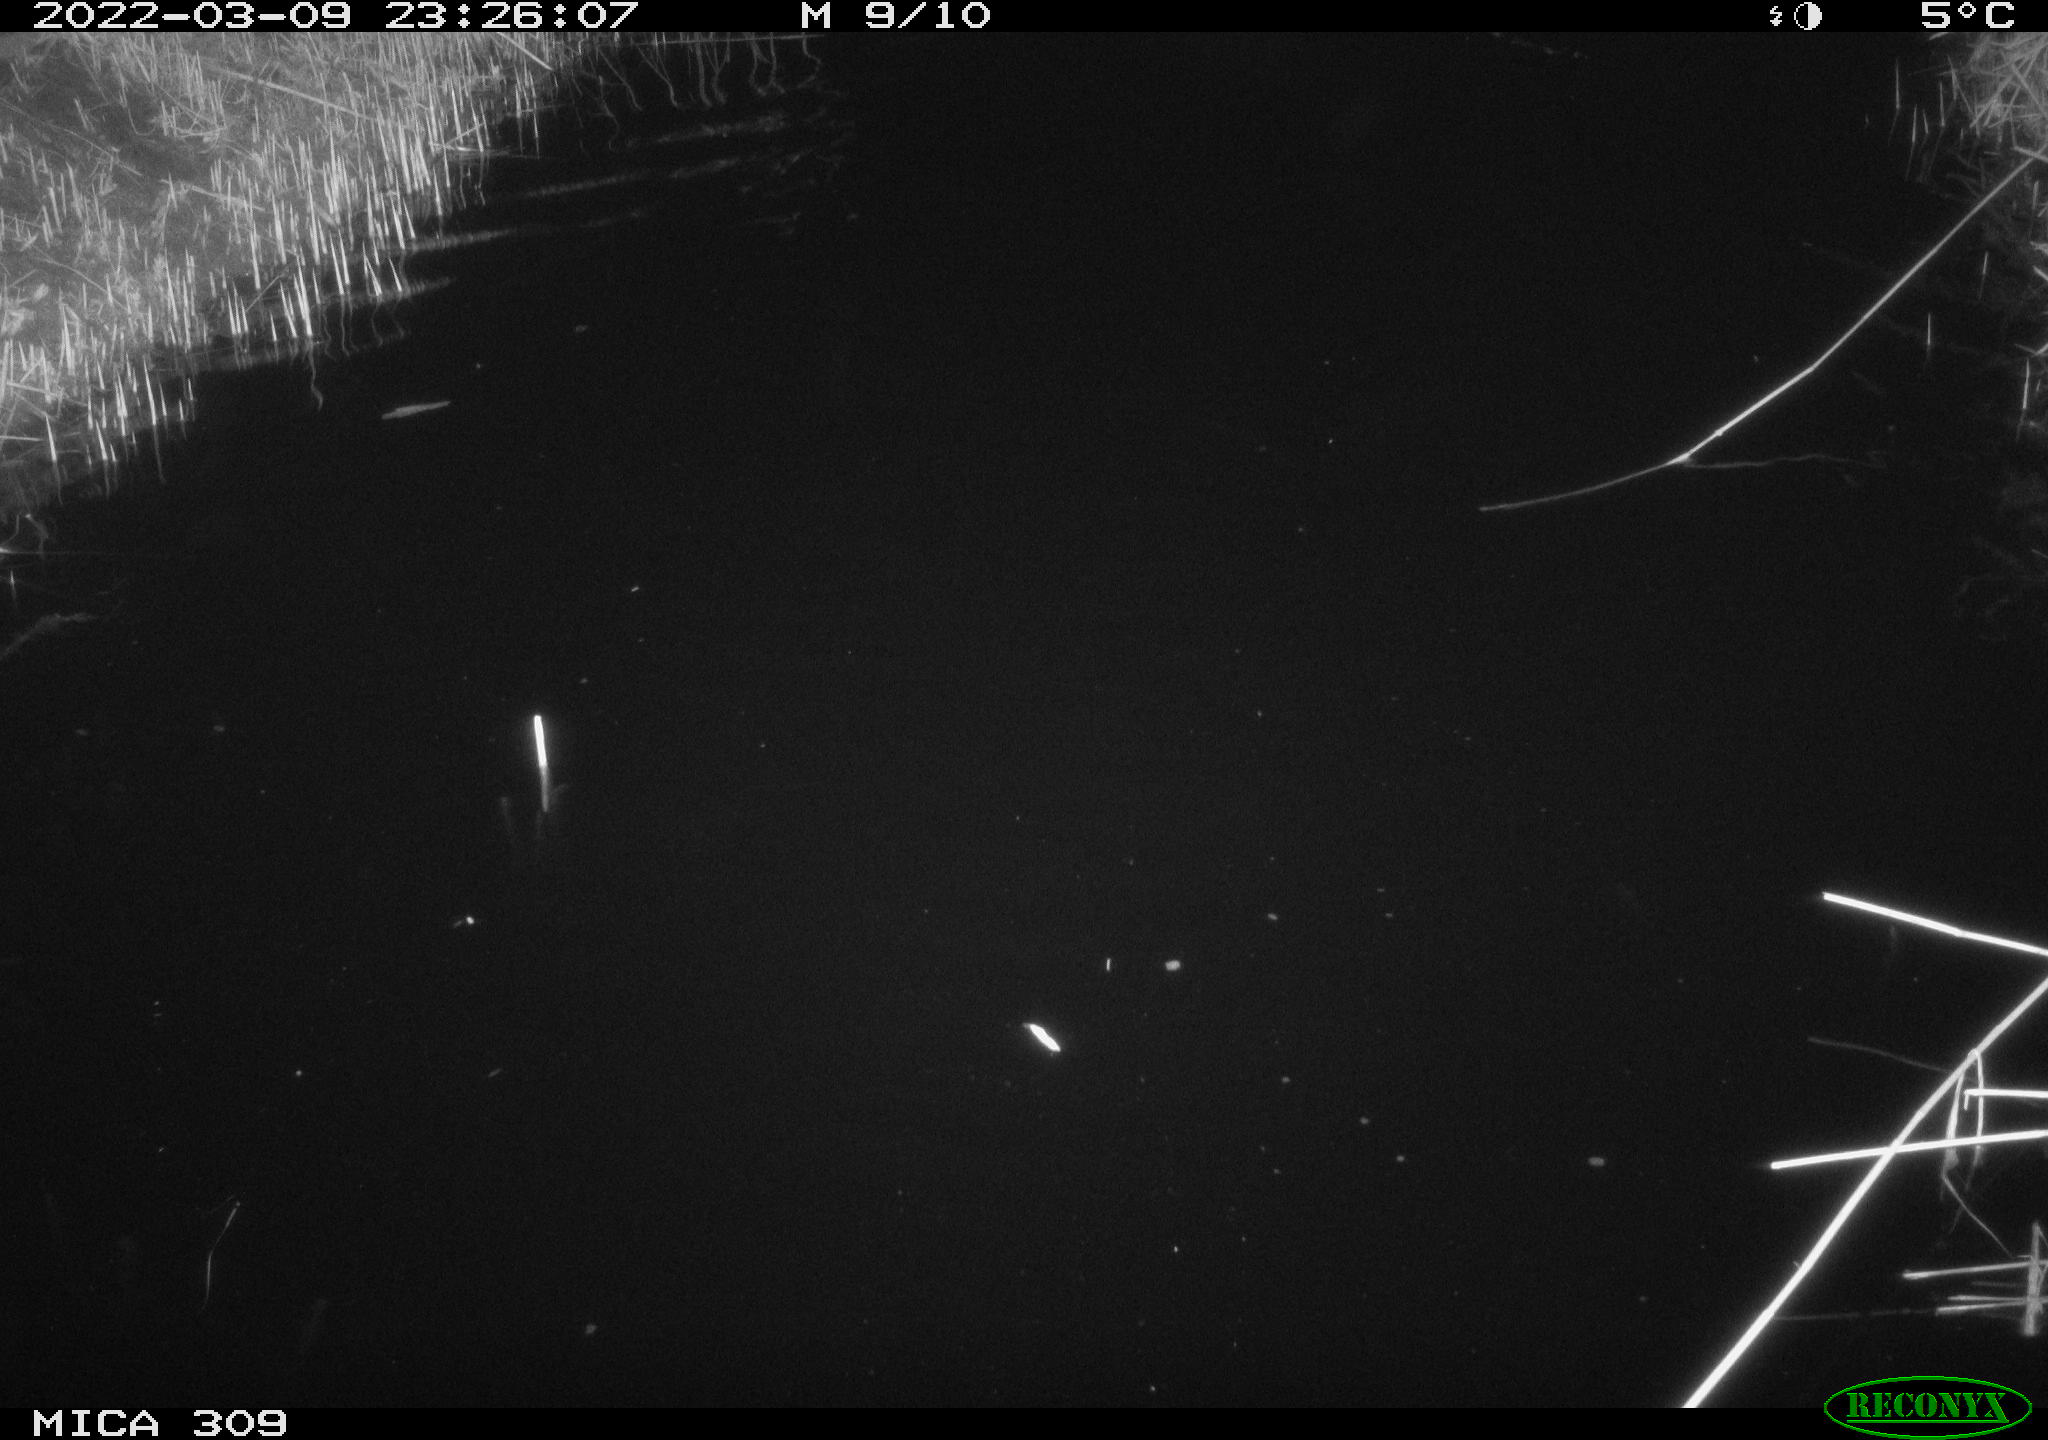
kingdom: Animalia
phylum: Chordata
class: Mammalia
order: Rodentia
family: Cricetidae
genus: Ondatra
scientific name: Ondatra zibethicus
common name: Muskrat
